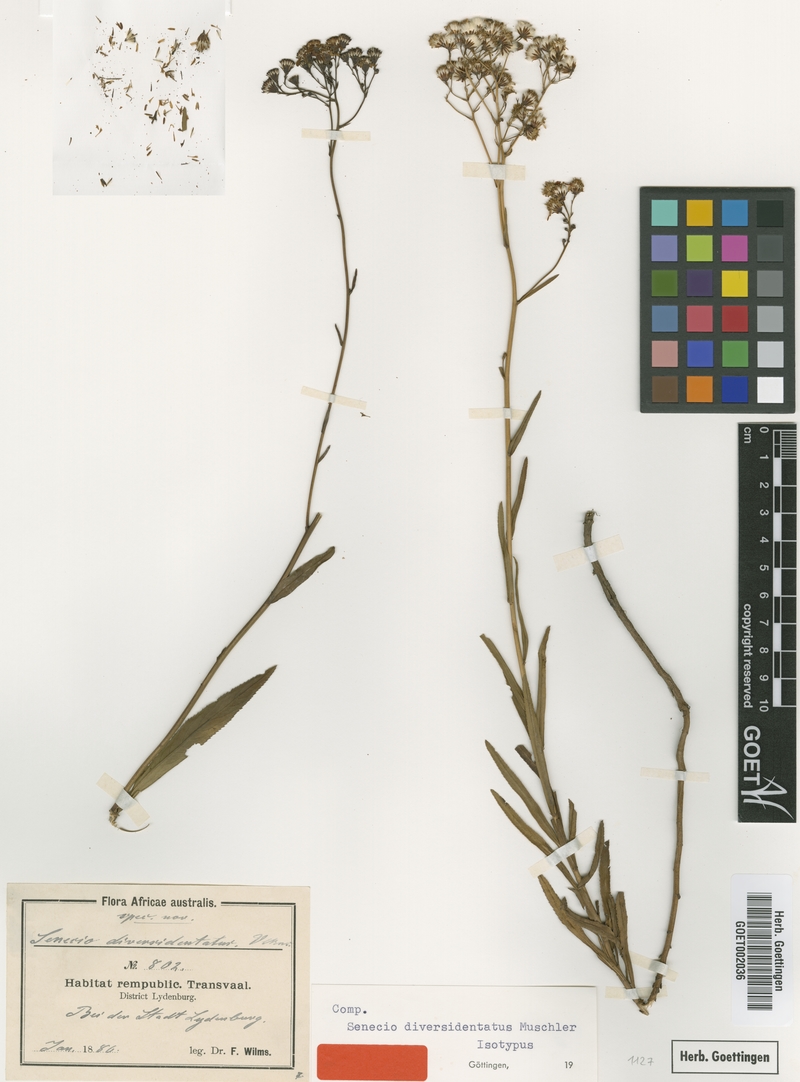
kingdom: Plantae
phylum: Tracheophyta
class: Magnoliopsida
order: Asterales
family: Asteraceae
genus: Senecio
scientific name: Senecio inornatus
